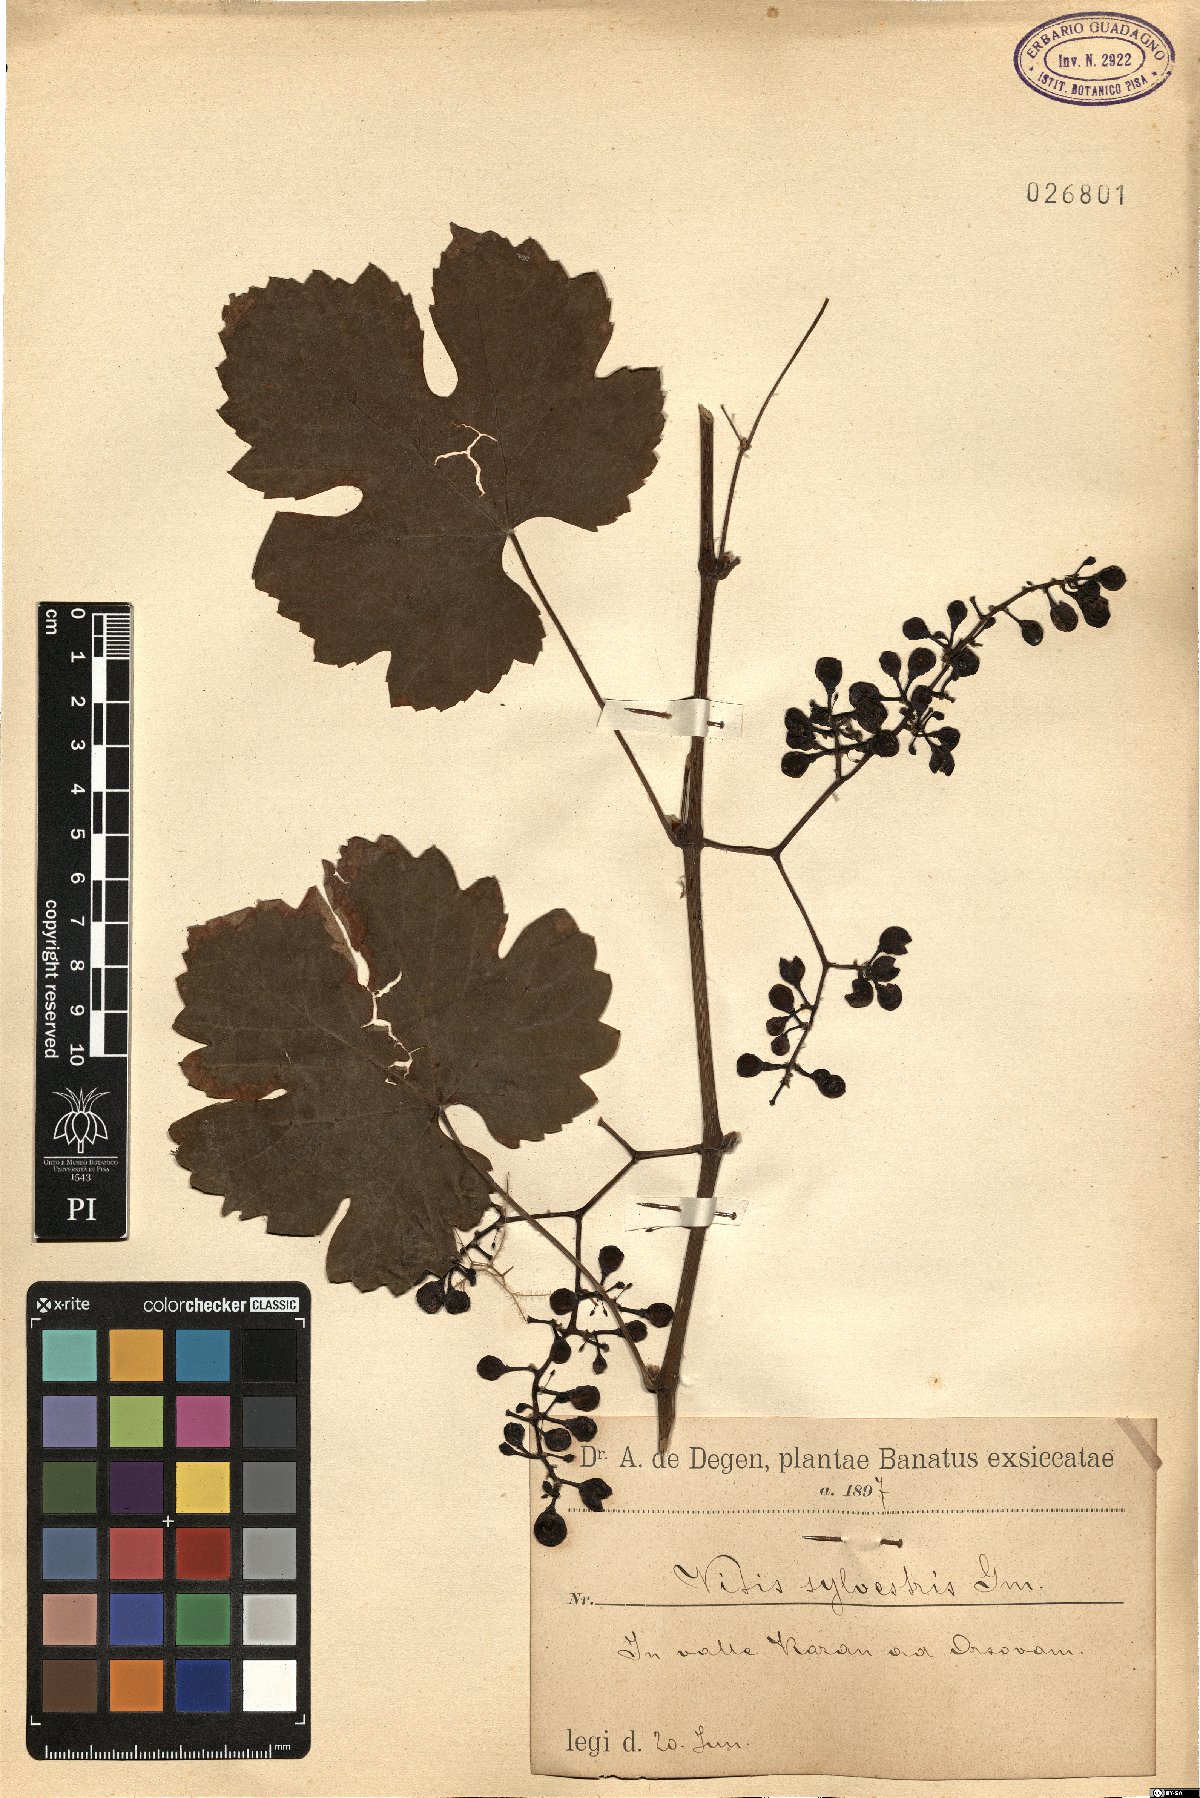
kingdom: Plantae
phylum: Tracheophyta
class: Magnoliopsida
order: Vitales
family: Vitaceae
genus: Vitis
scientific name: Vitis gmelinii
